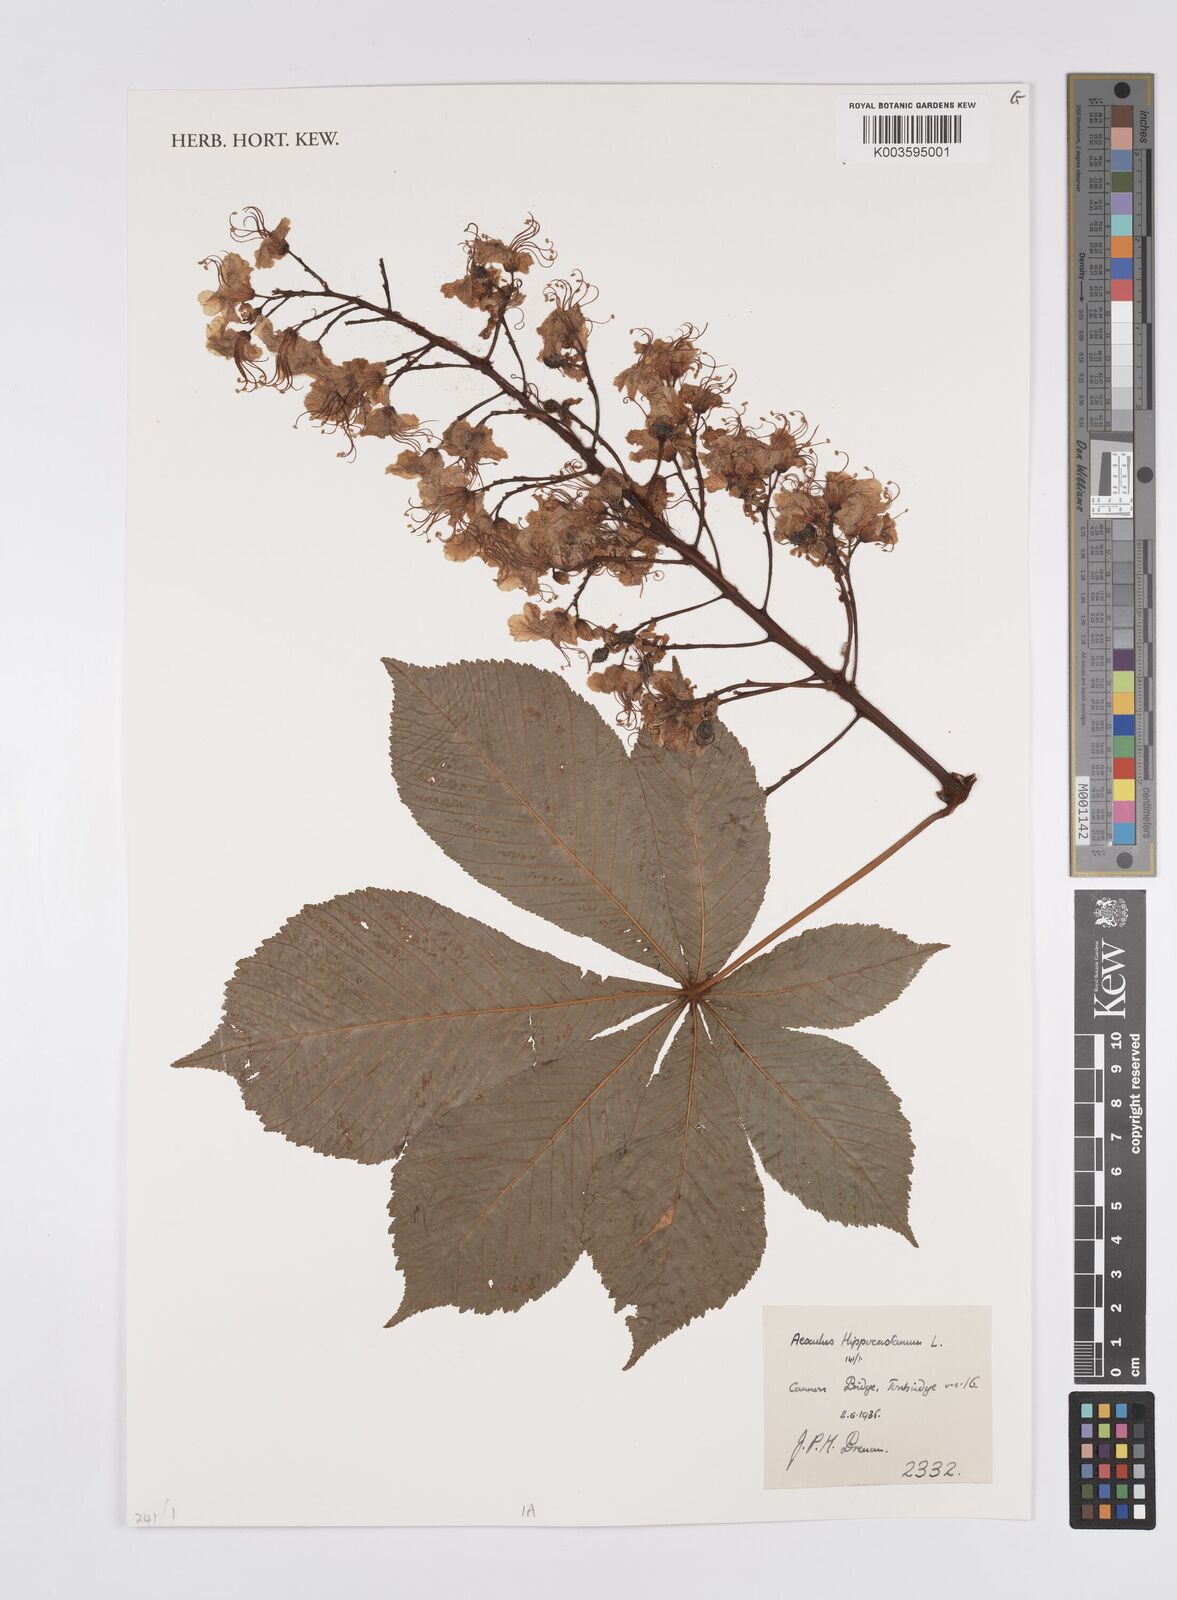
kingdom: Plantae
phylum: Tracheophyta
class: Magnoliopsida
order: Sapindales
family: Sapindaceae
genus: Aesculus
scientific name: Aesculus hippocastanum
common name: Horse-chestnut
